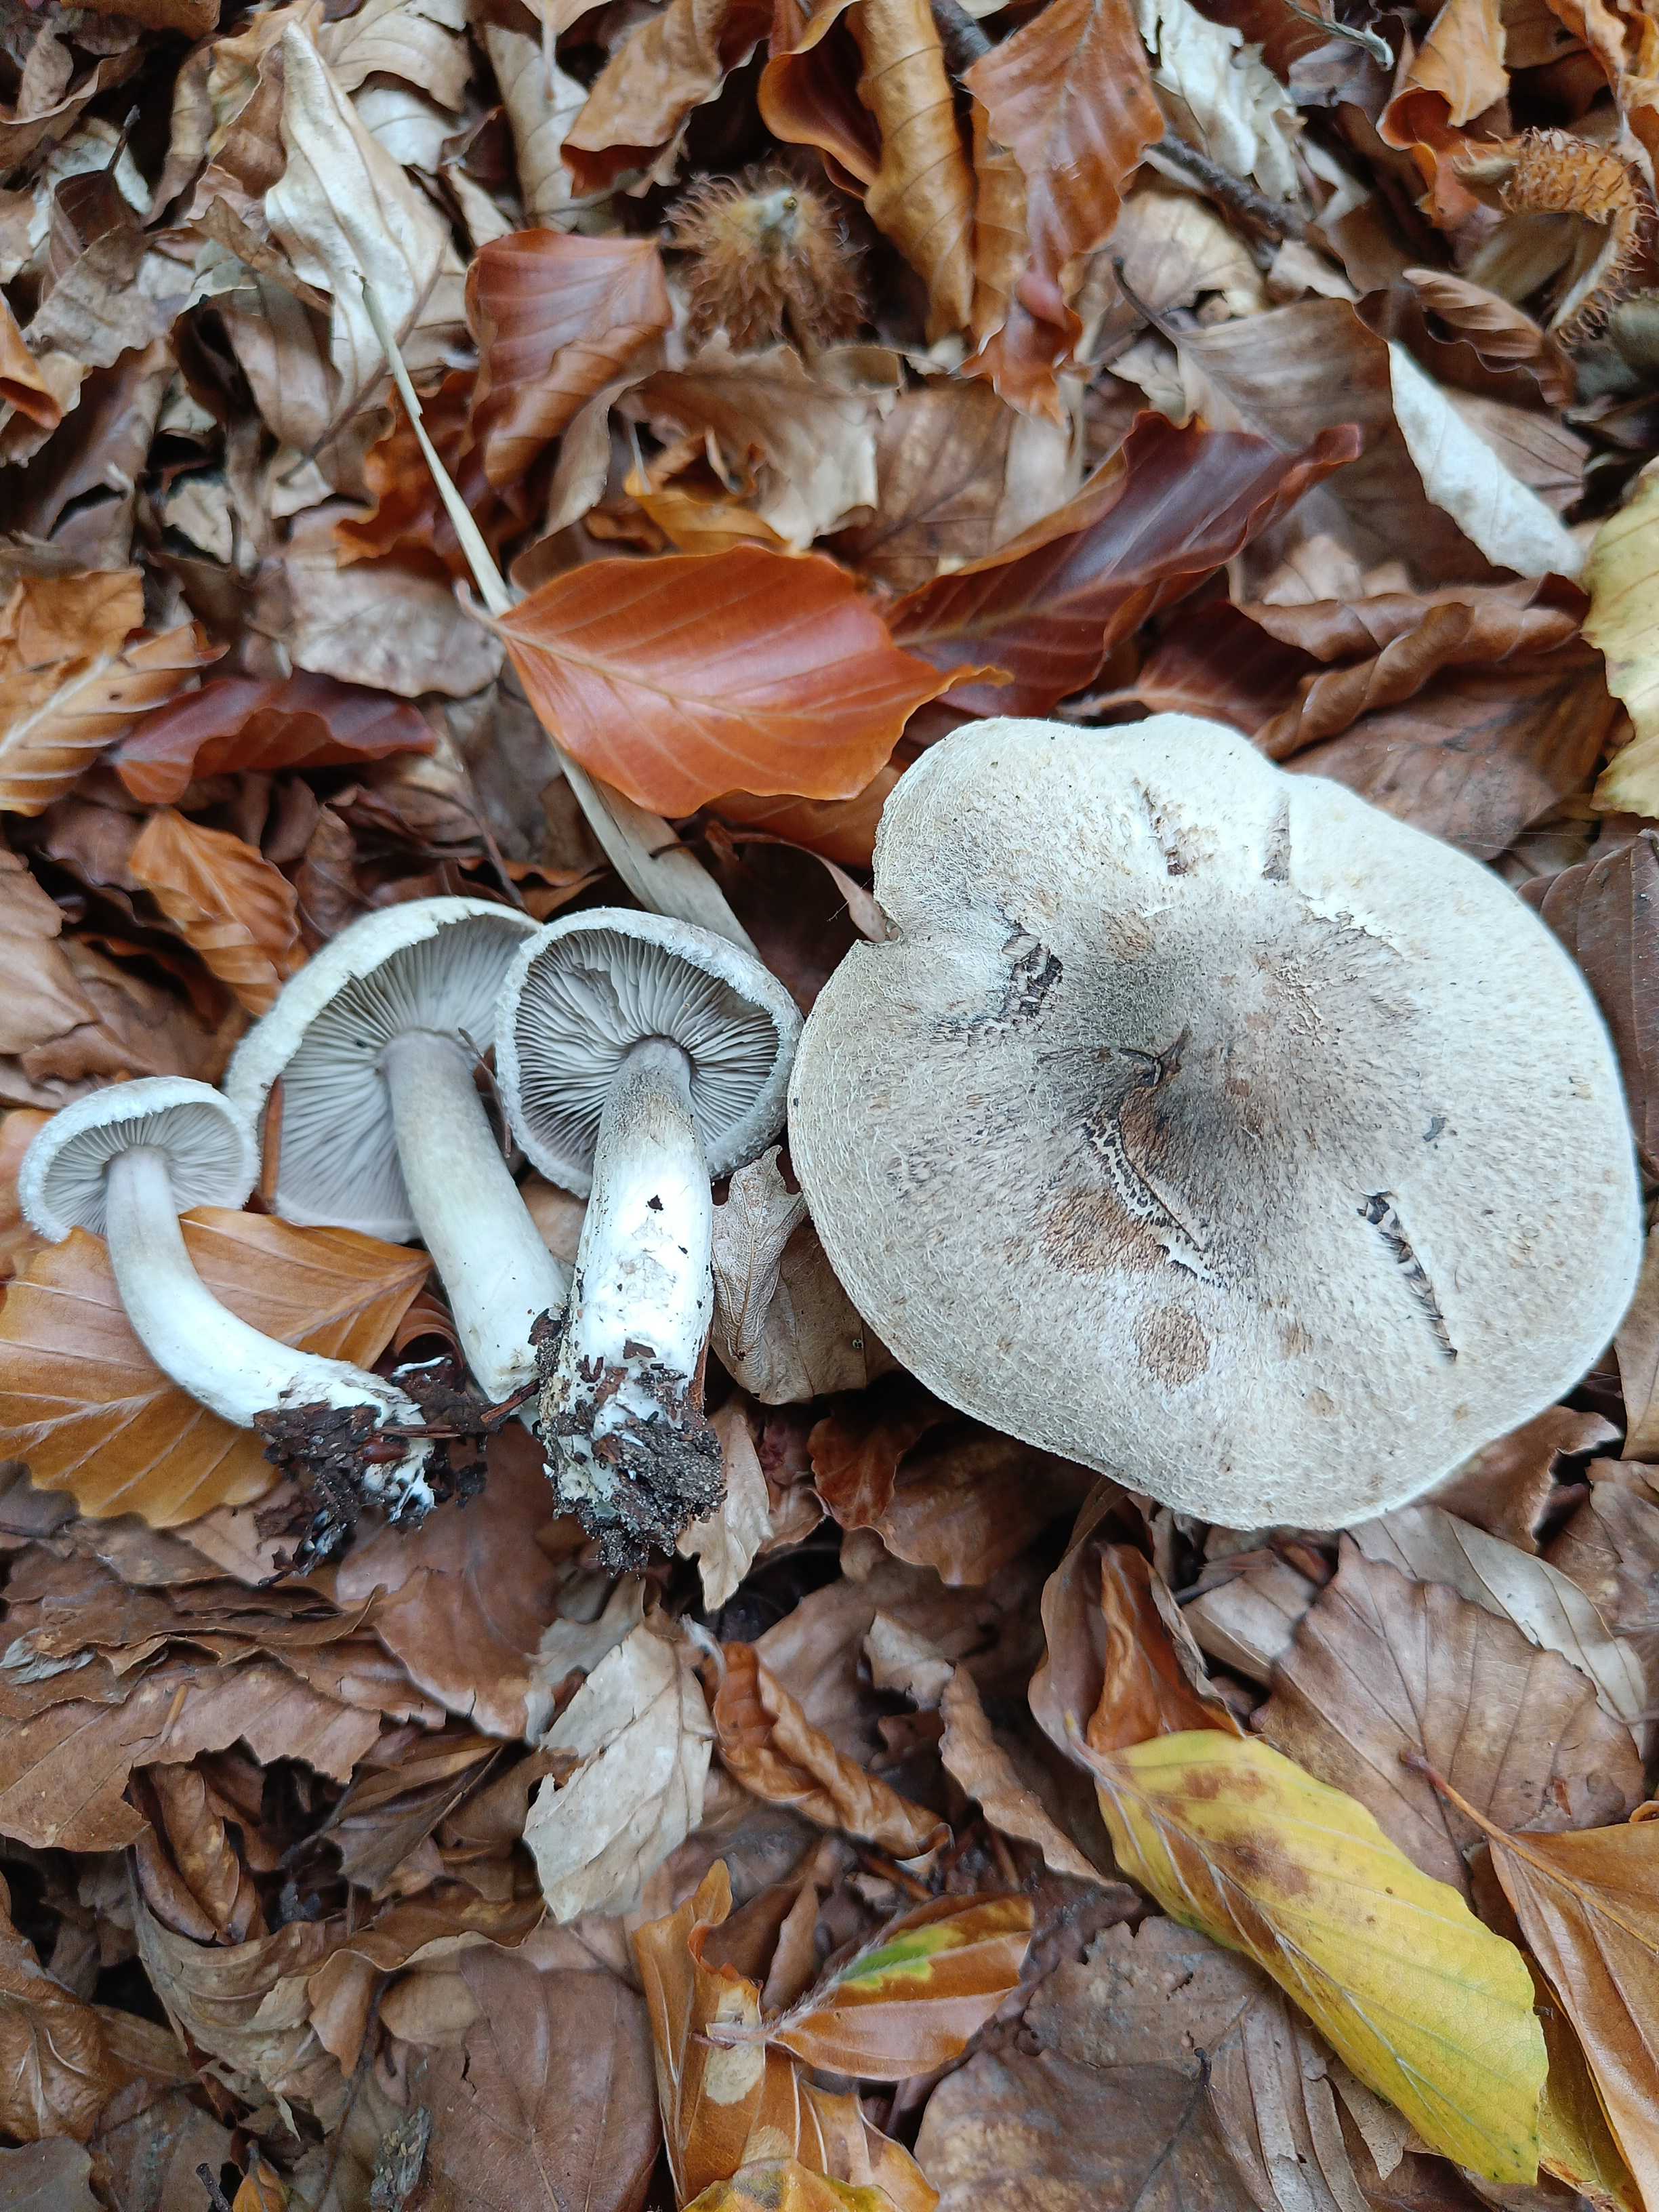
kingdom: Fungi
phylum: Basidiomycota
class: Agaricomycetes
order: Agaricales
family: Tricholomataceae
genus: Tricholoma
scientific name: Tricholoma
